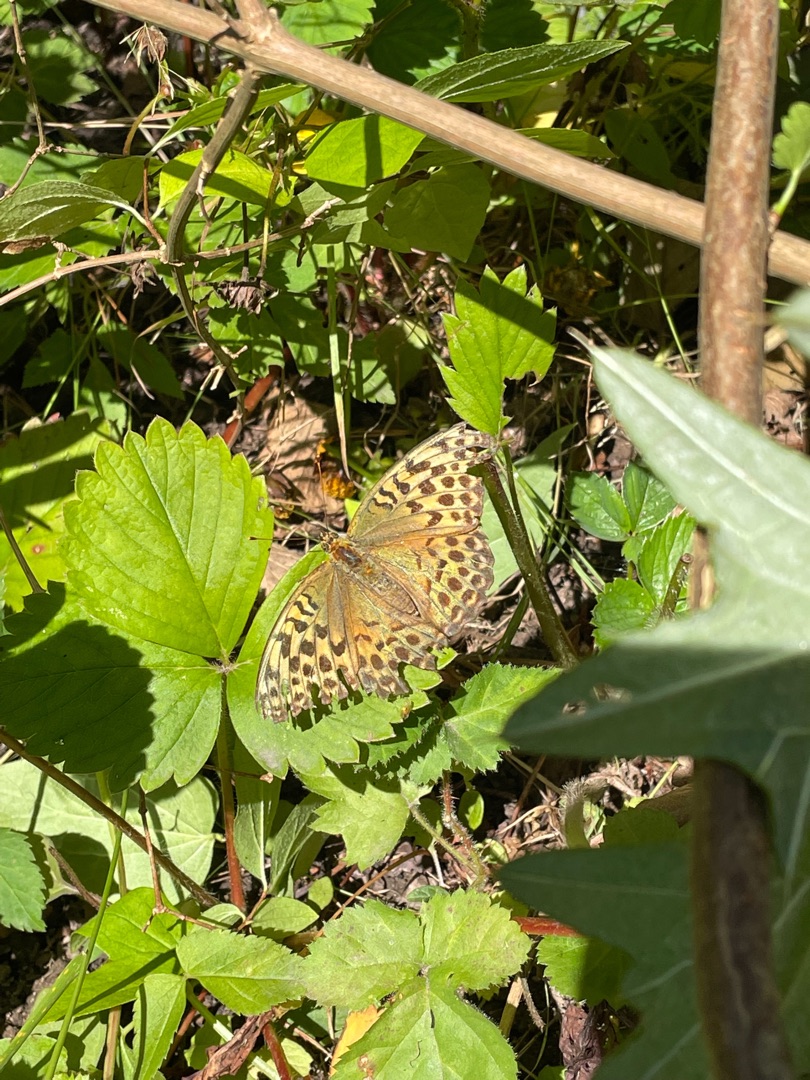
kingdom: Animalia
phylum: Arthropoda
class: Insecta
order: Lepidoptera
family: Nymphalidae
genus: Argynnis
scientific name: Argynnis paphia
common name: Kejserkåbe
